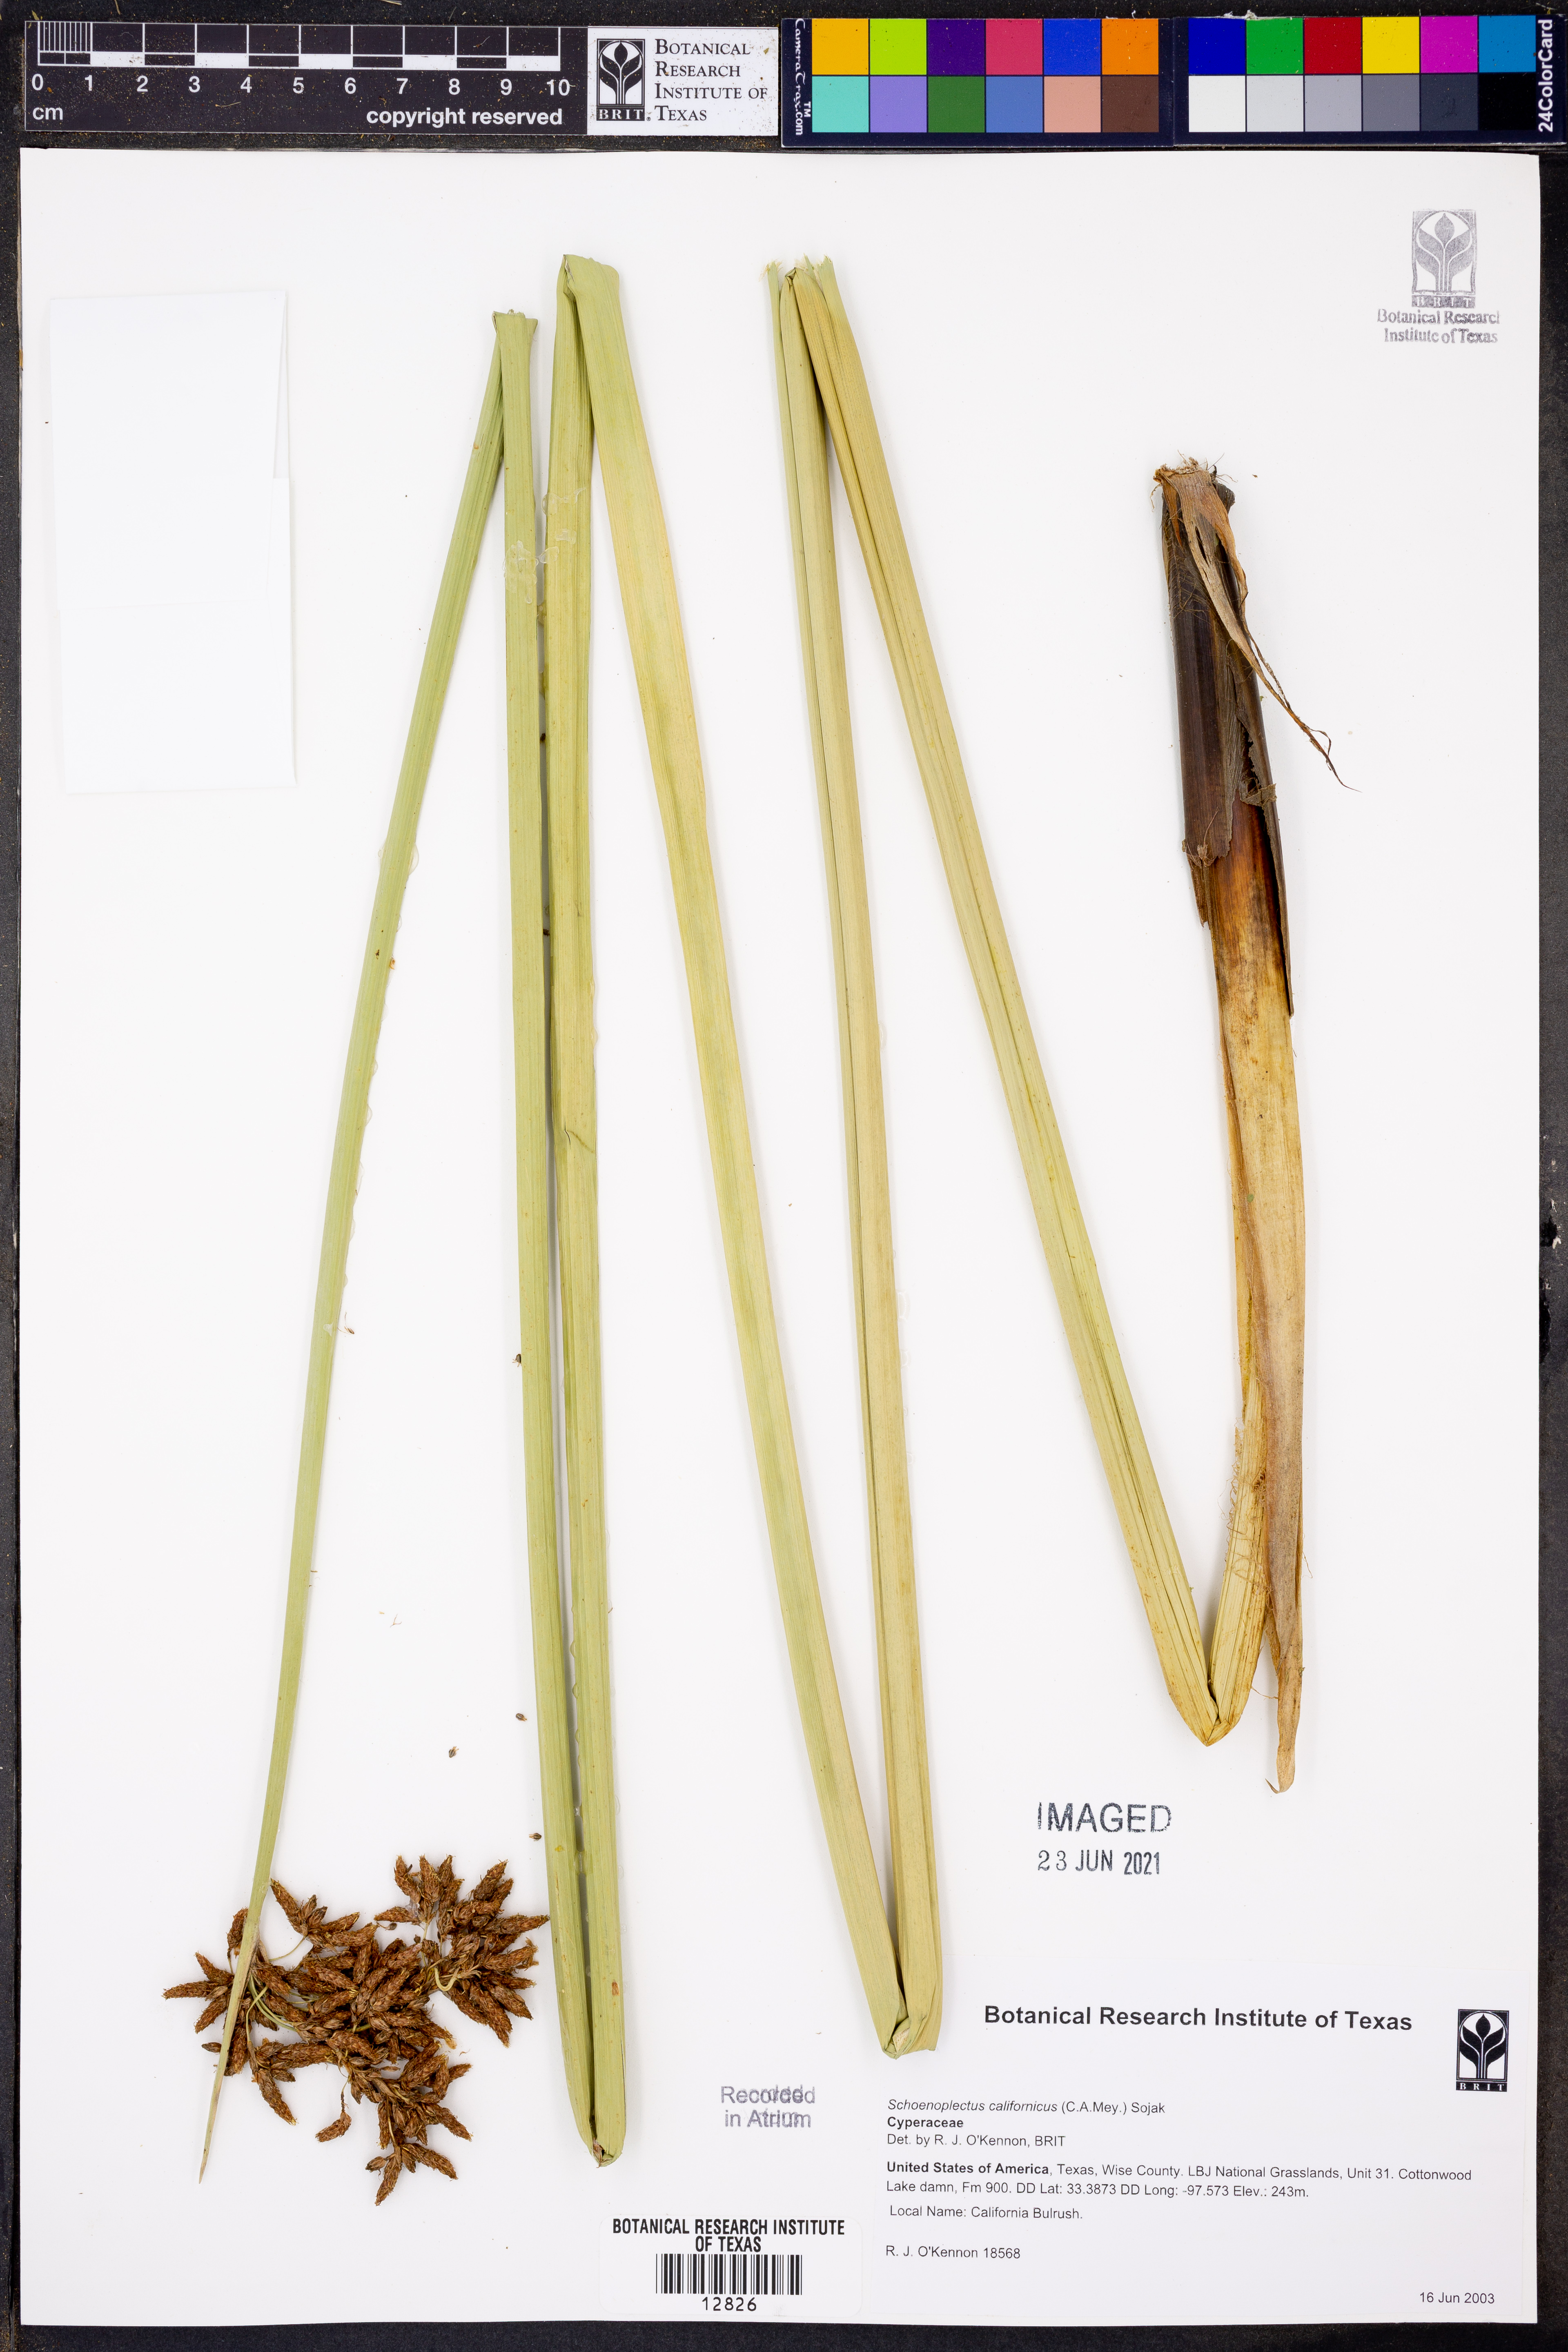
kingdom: Plantae
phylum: Tracheophyta
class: Liliopsida
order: Poales
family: Cyperaceae
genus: Schoenoplectus
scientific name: Schoenoplectus californicus
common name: California bulrush
